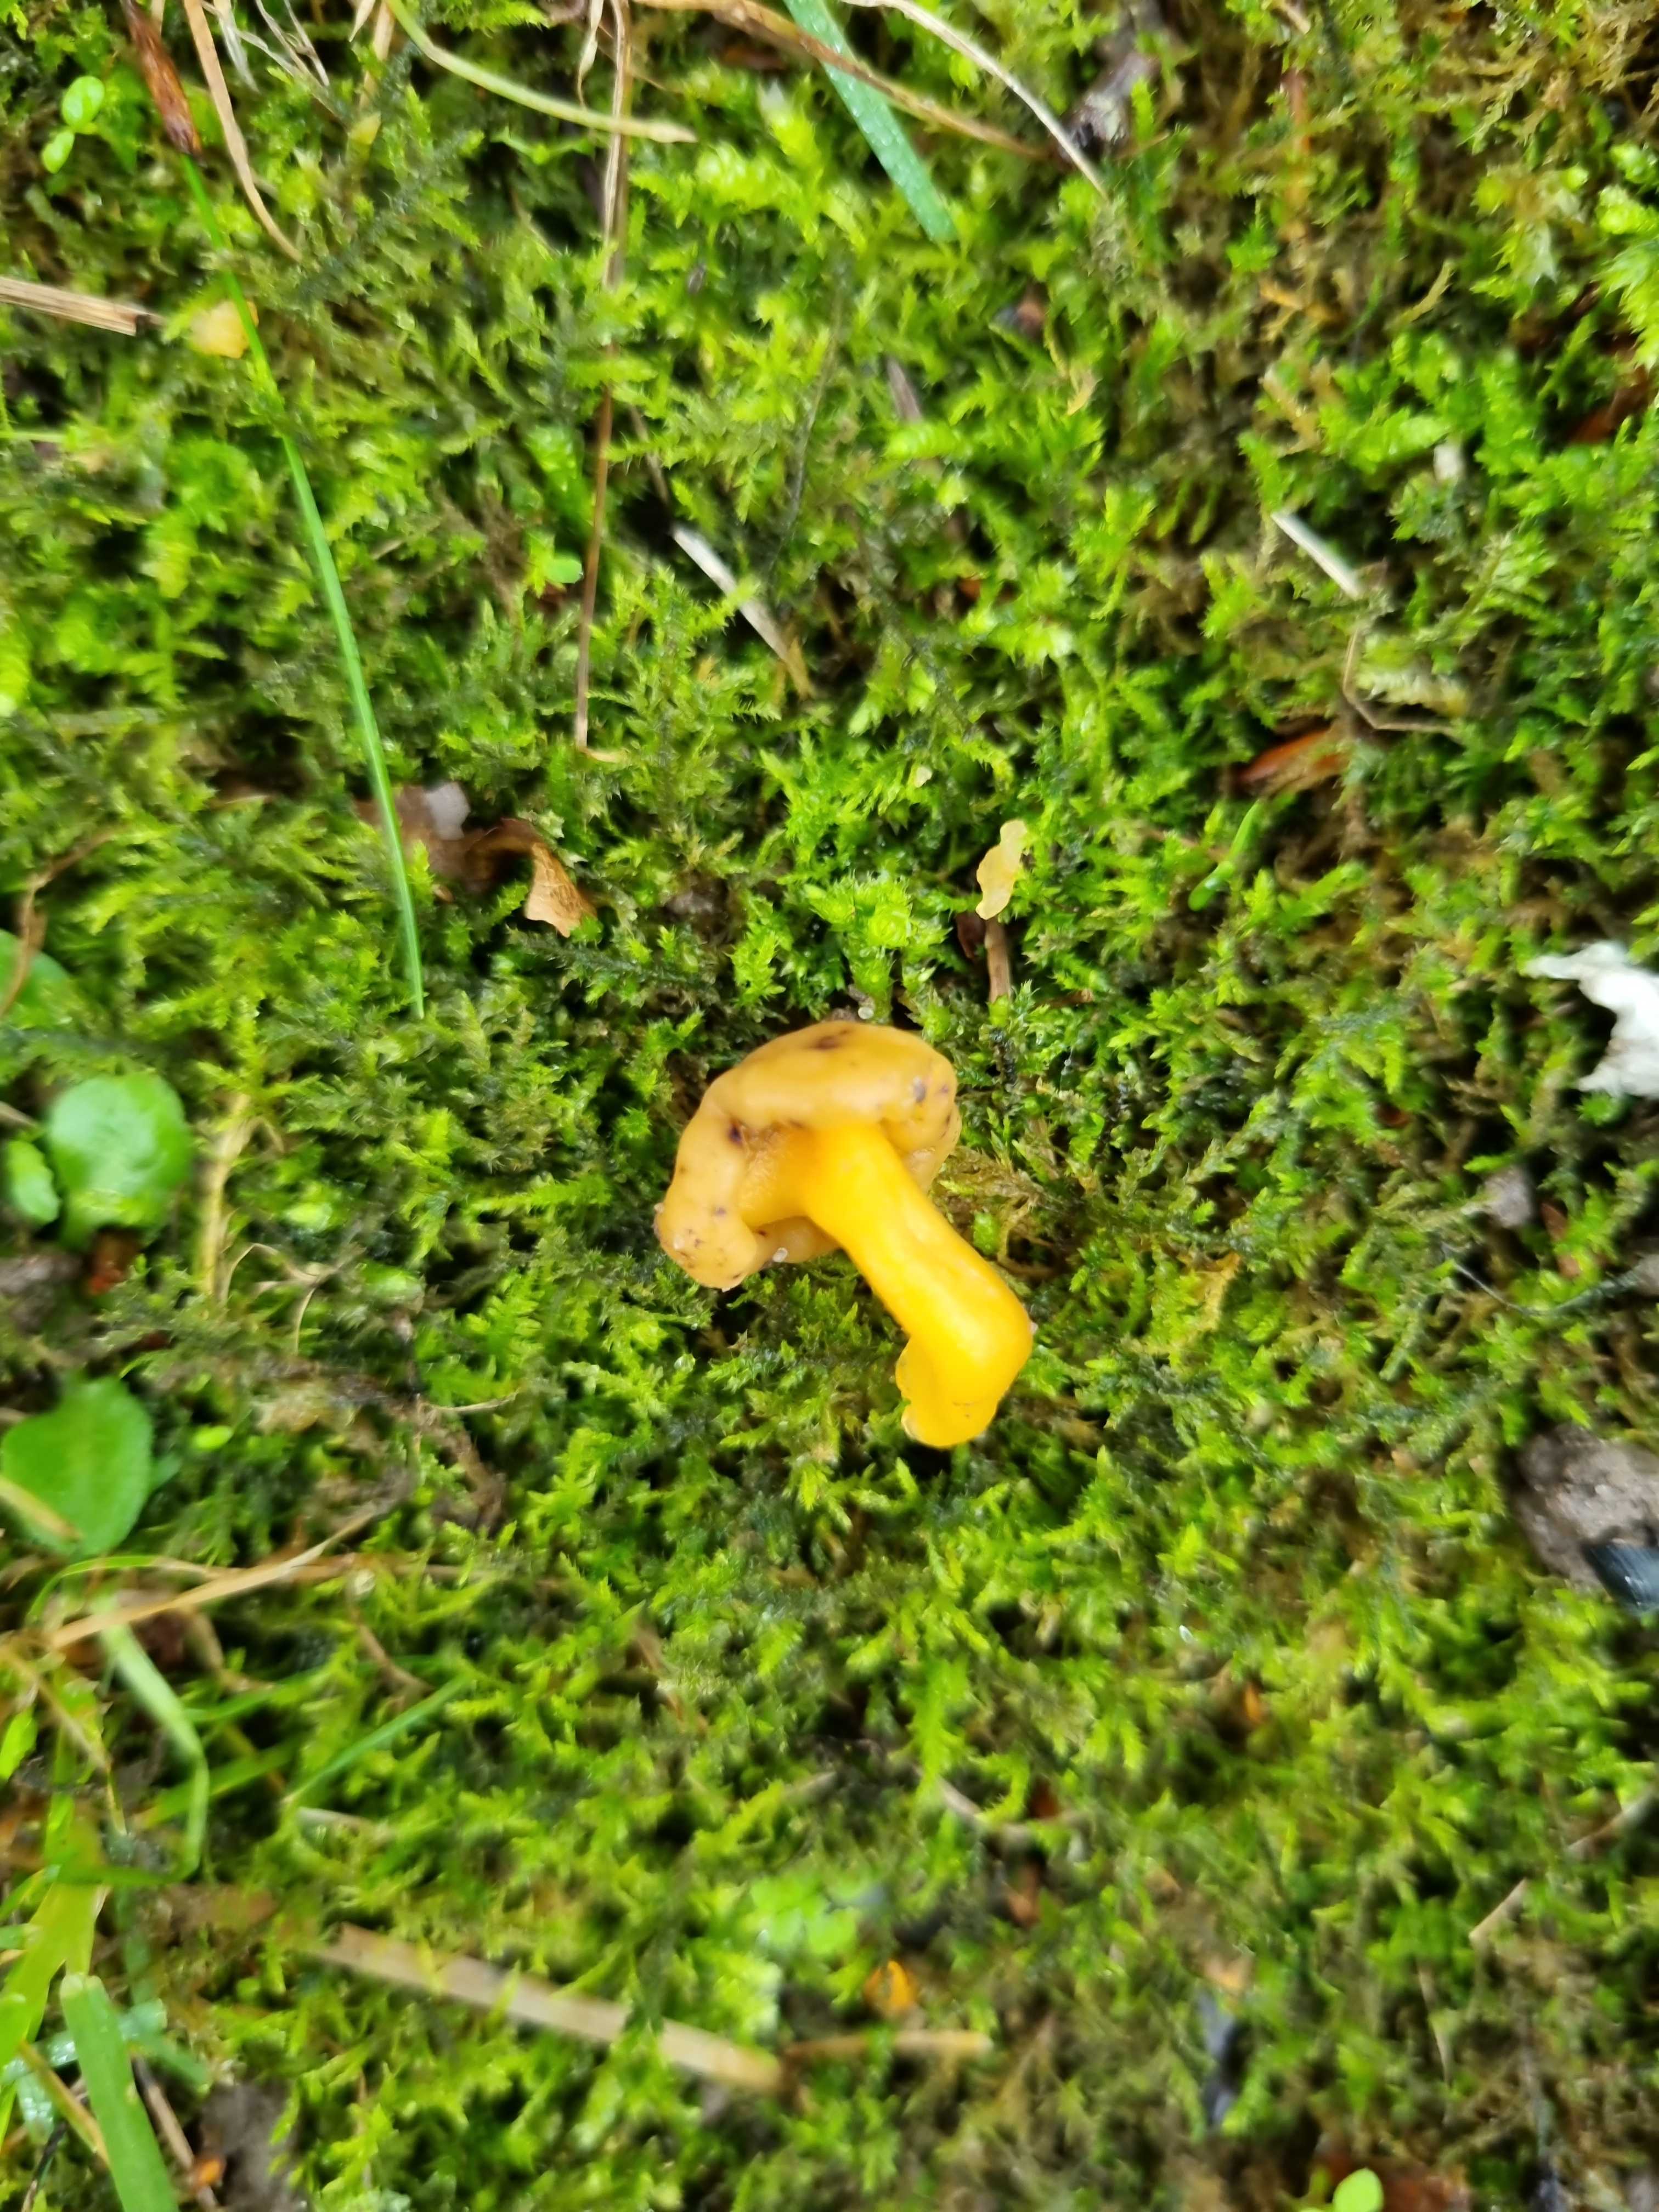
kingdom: Fungi
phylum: Ascomycota
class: Leotiomycetes
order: Leotiales
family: Leotiaceae
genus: Leotia
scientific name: Leotia lubrica
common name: ravsvamp
